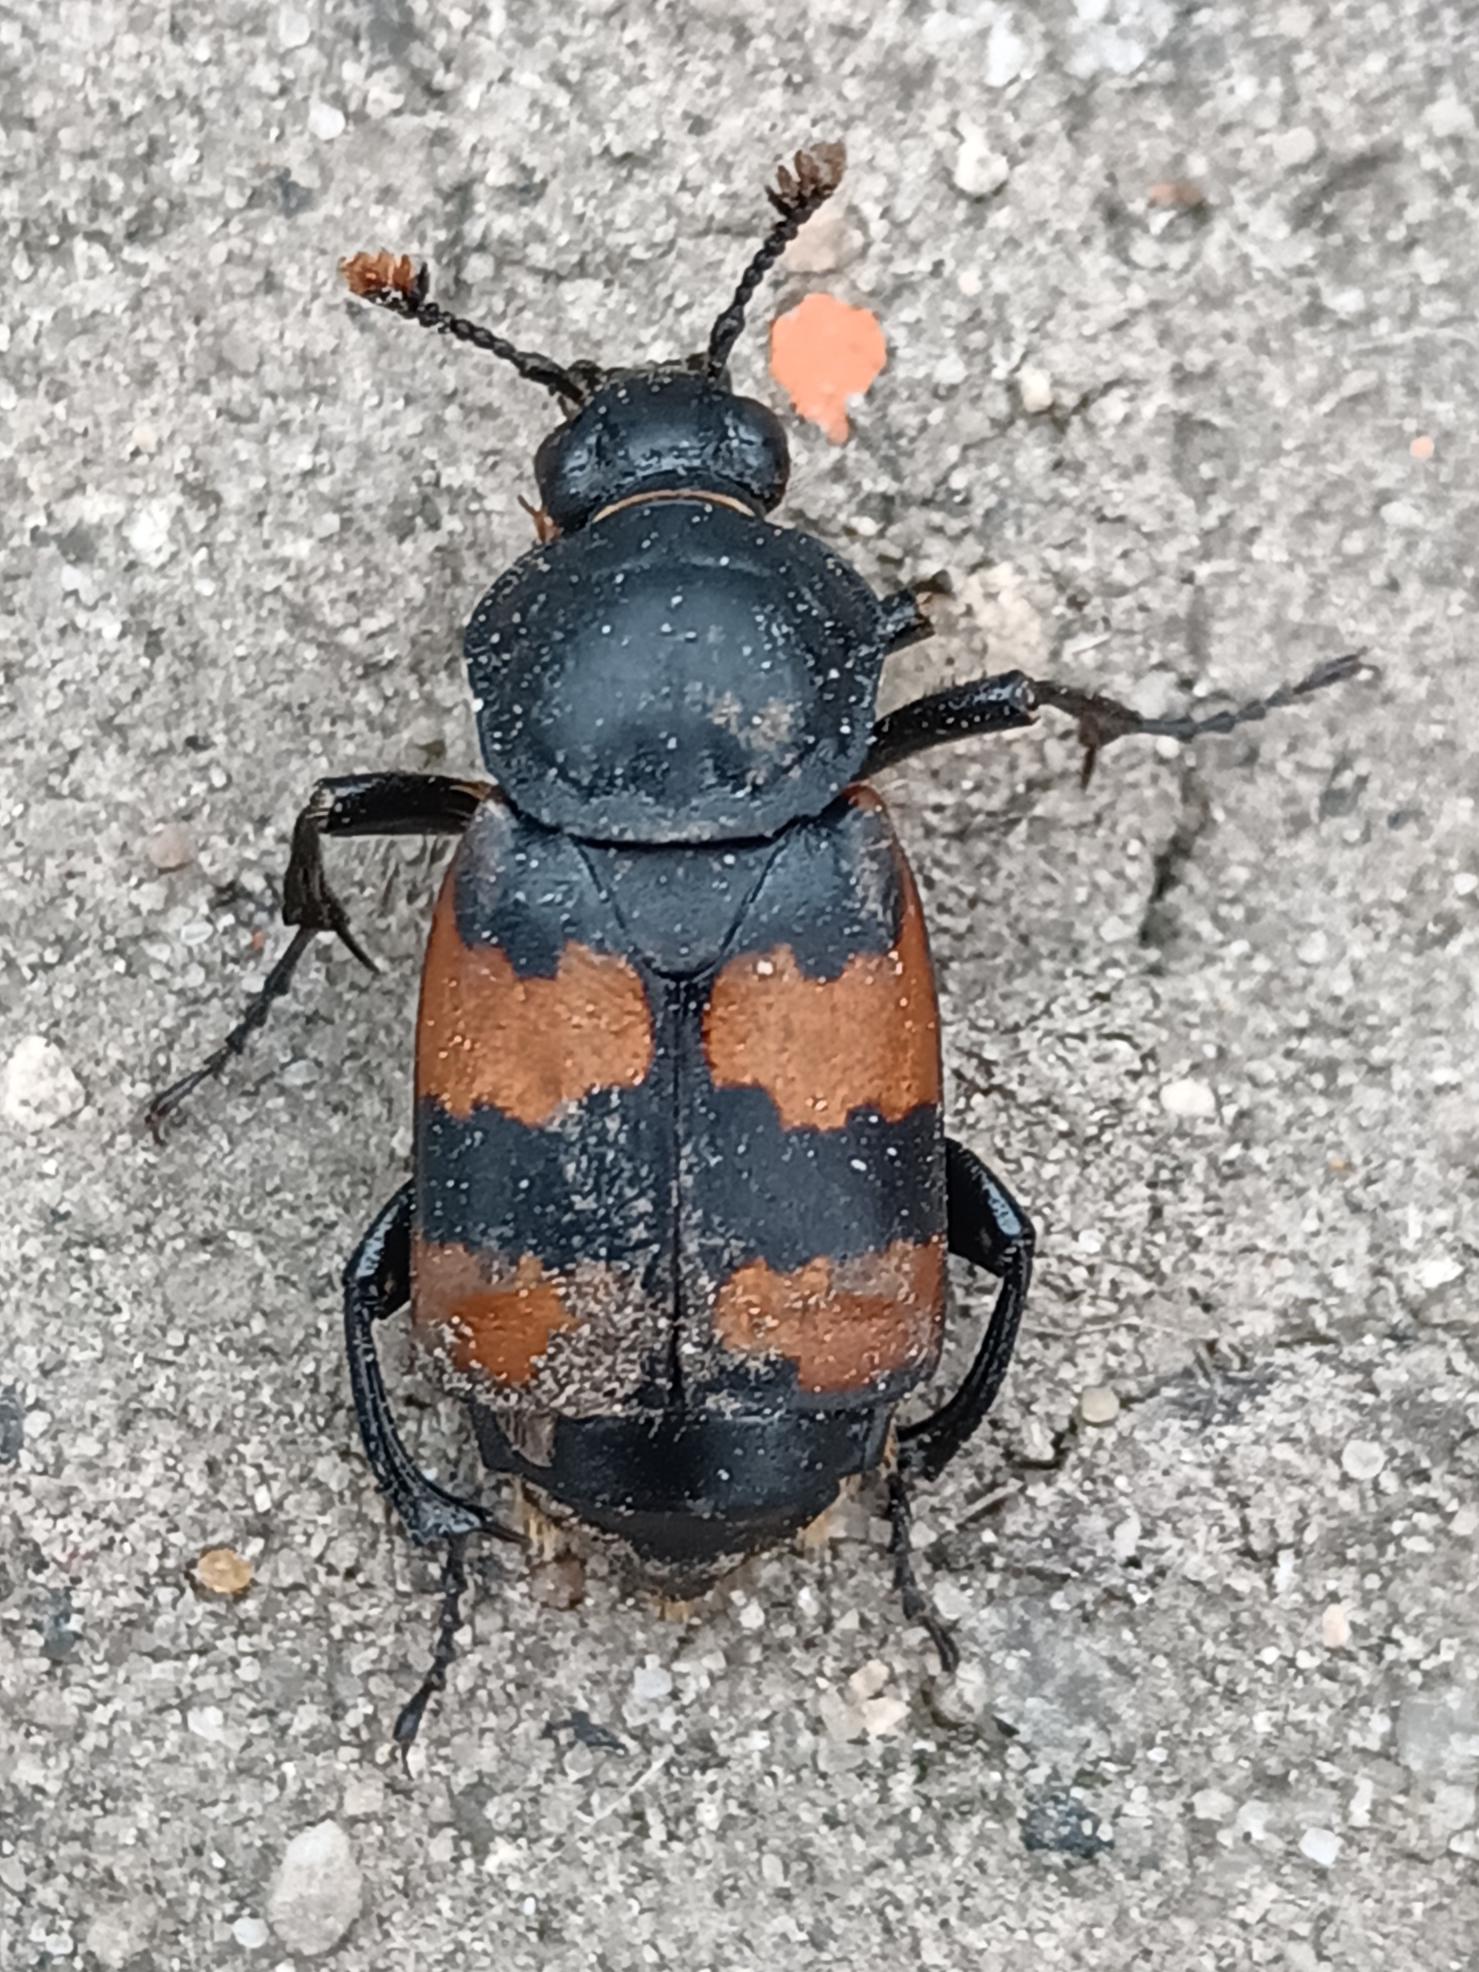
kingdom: Animalia
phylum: Arthropoda
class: Insecta
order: Coleoptera
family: Staphylinidae
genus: Nicrophorus
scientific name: Nicrophorus vespillo
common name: Krumbenet ådselgraver
